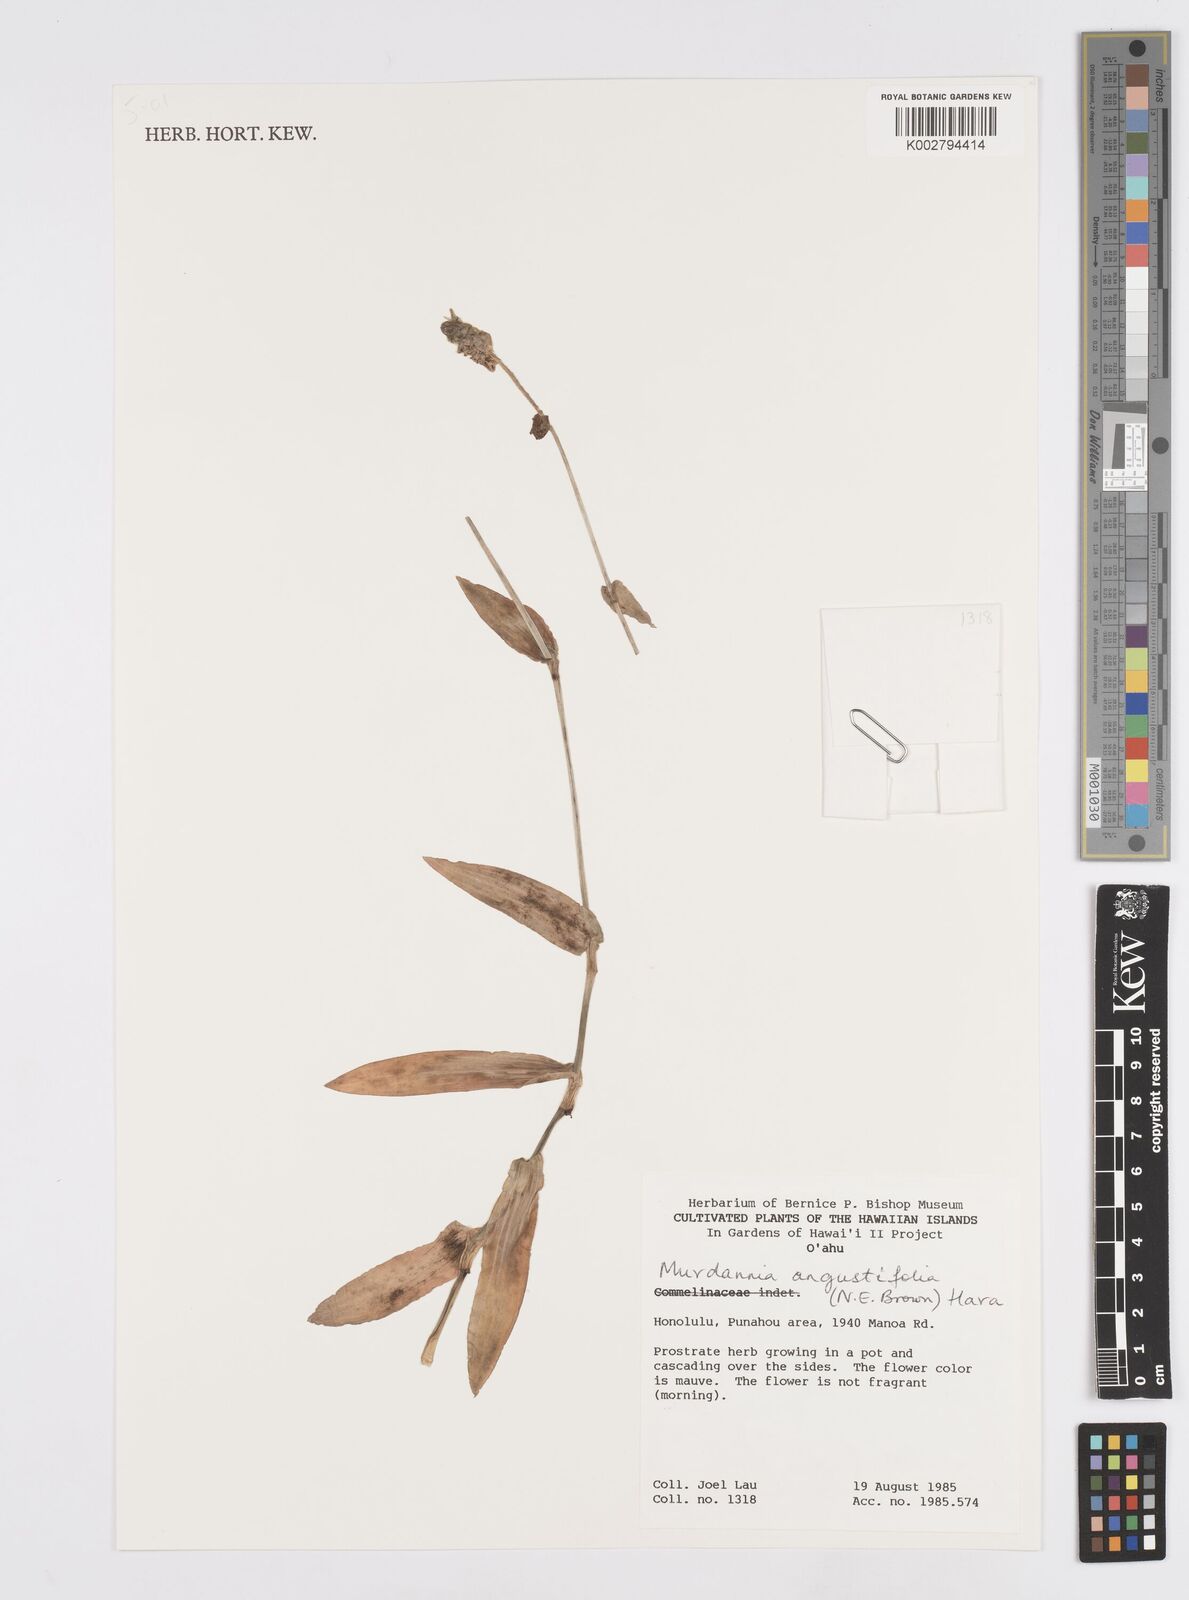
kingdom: Plantae
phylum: Tracheophyta
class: Liliopsida
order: Commelinales
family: Commelinaceae
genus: Murdannia
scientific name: Murdannia loriformis
